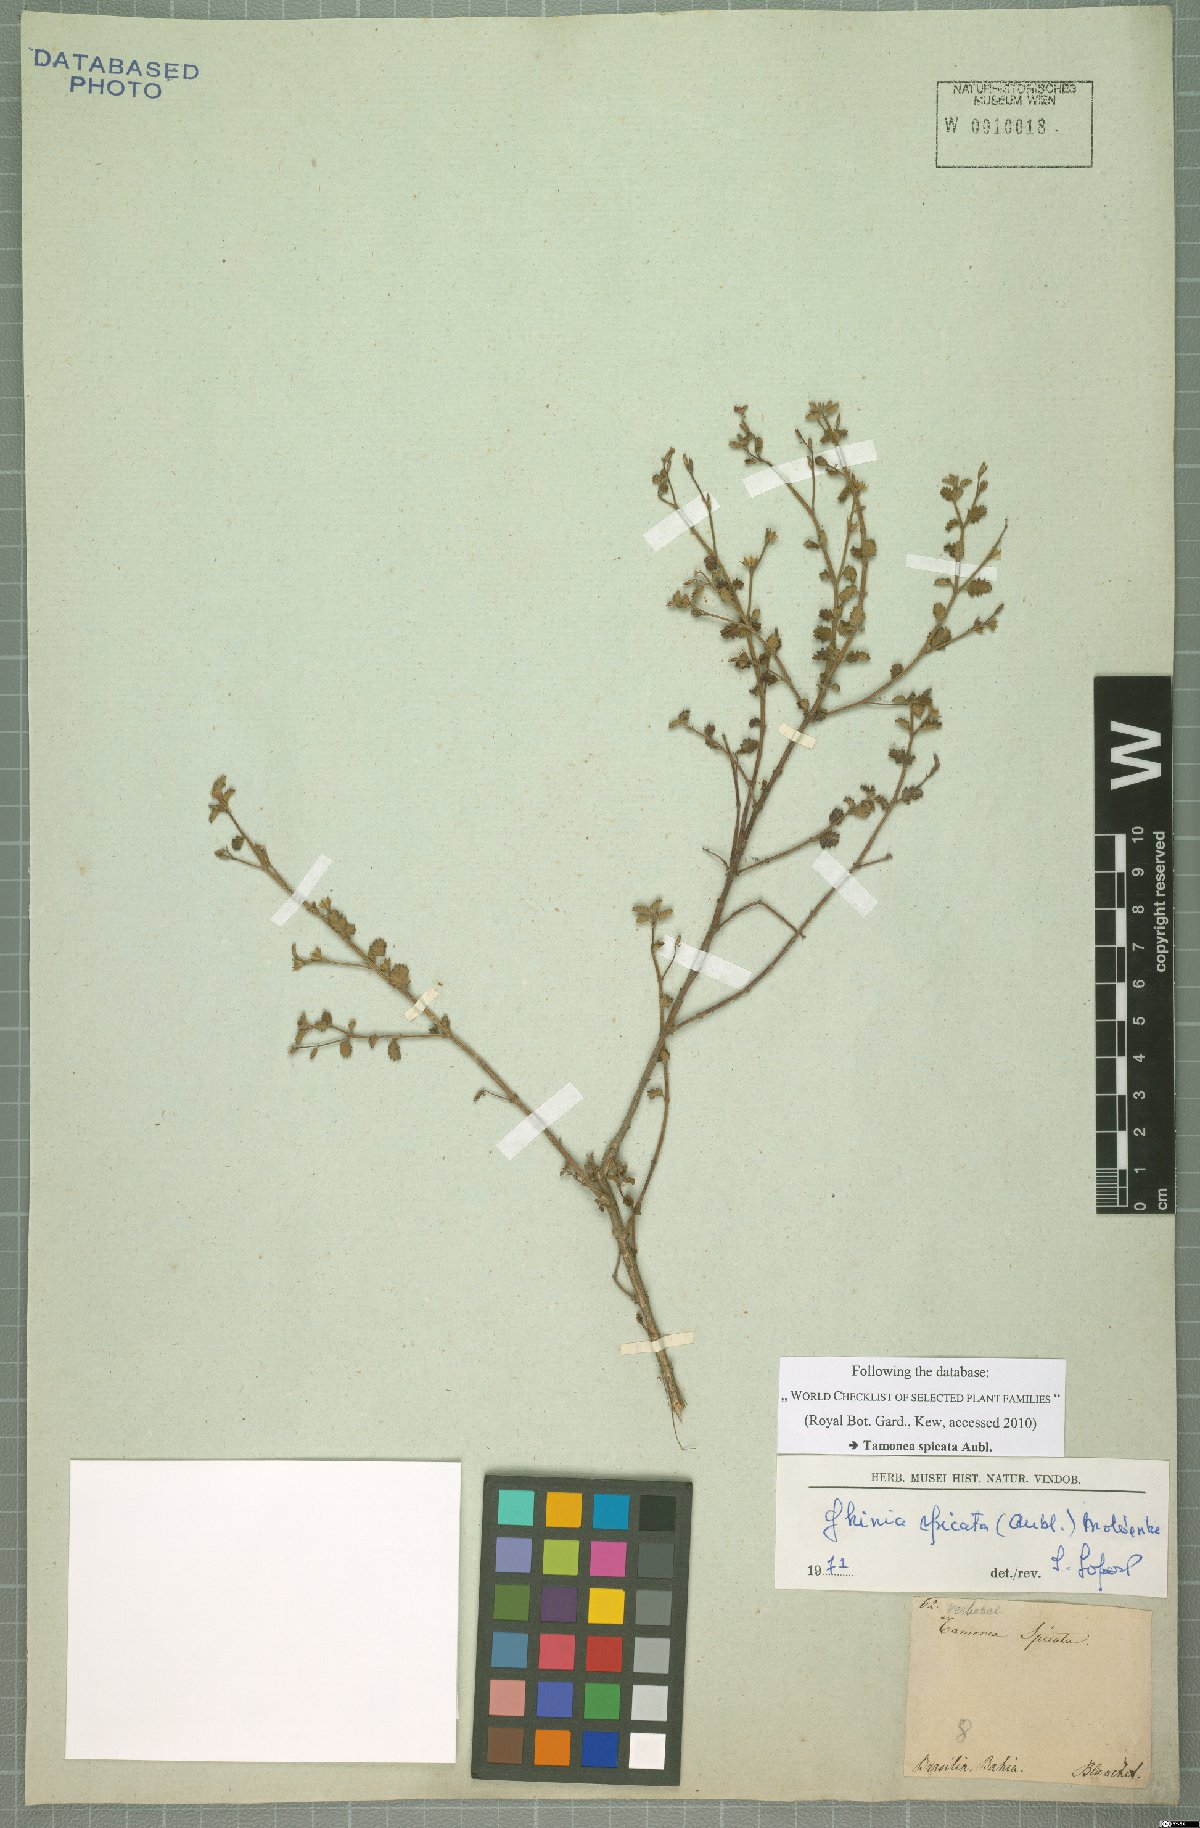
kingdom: Plantae
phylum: Tracheophyta
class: Magnoliopsida
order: Lamiales
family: Verbenaceae
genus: Tamonea
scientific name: Tamonea spicata
